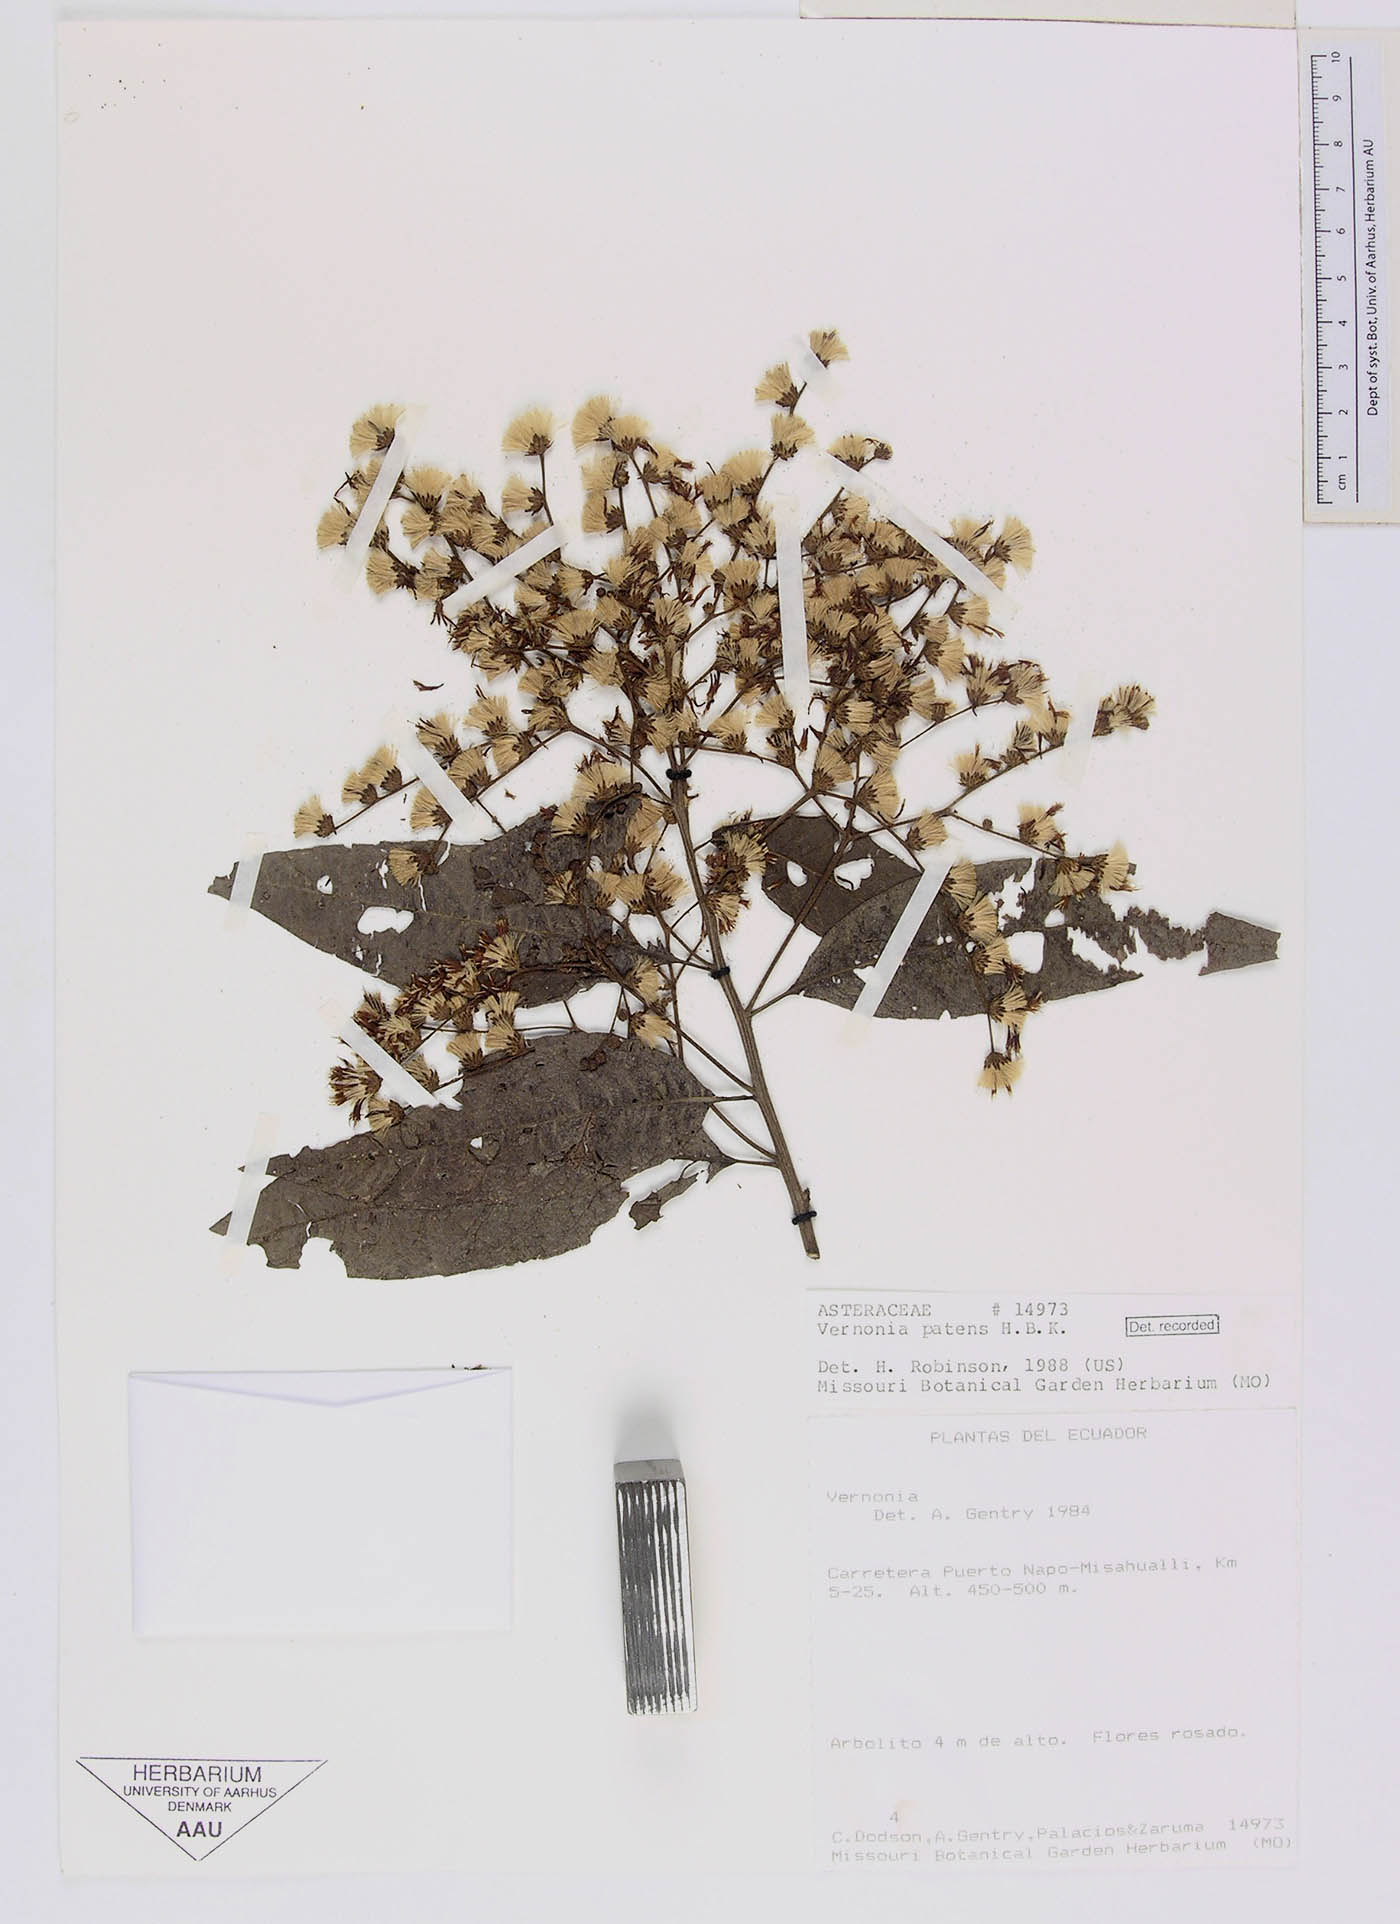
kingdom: Plantae
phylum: Tracheophyta
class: Magnoliopsida
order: Asterales
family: Asteraceae
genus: Vernonanthura
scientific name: Vernonanthura patens
